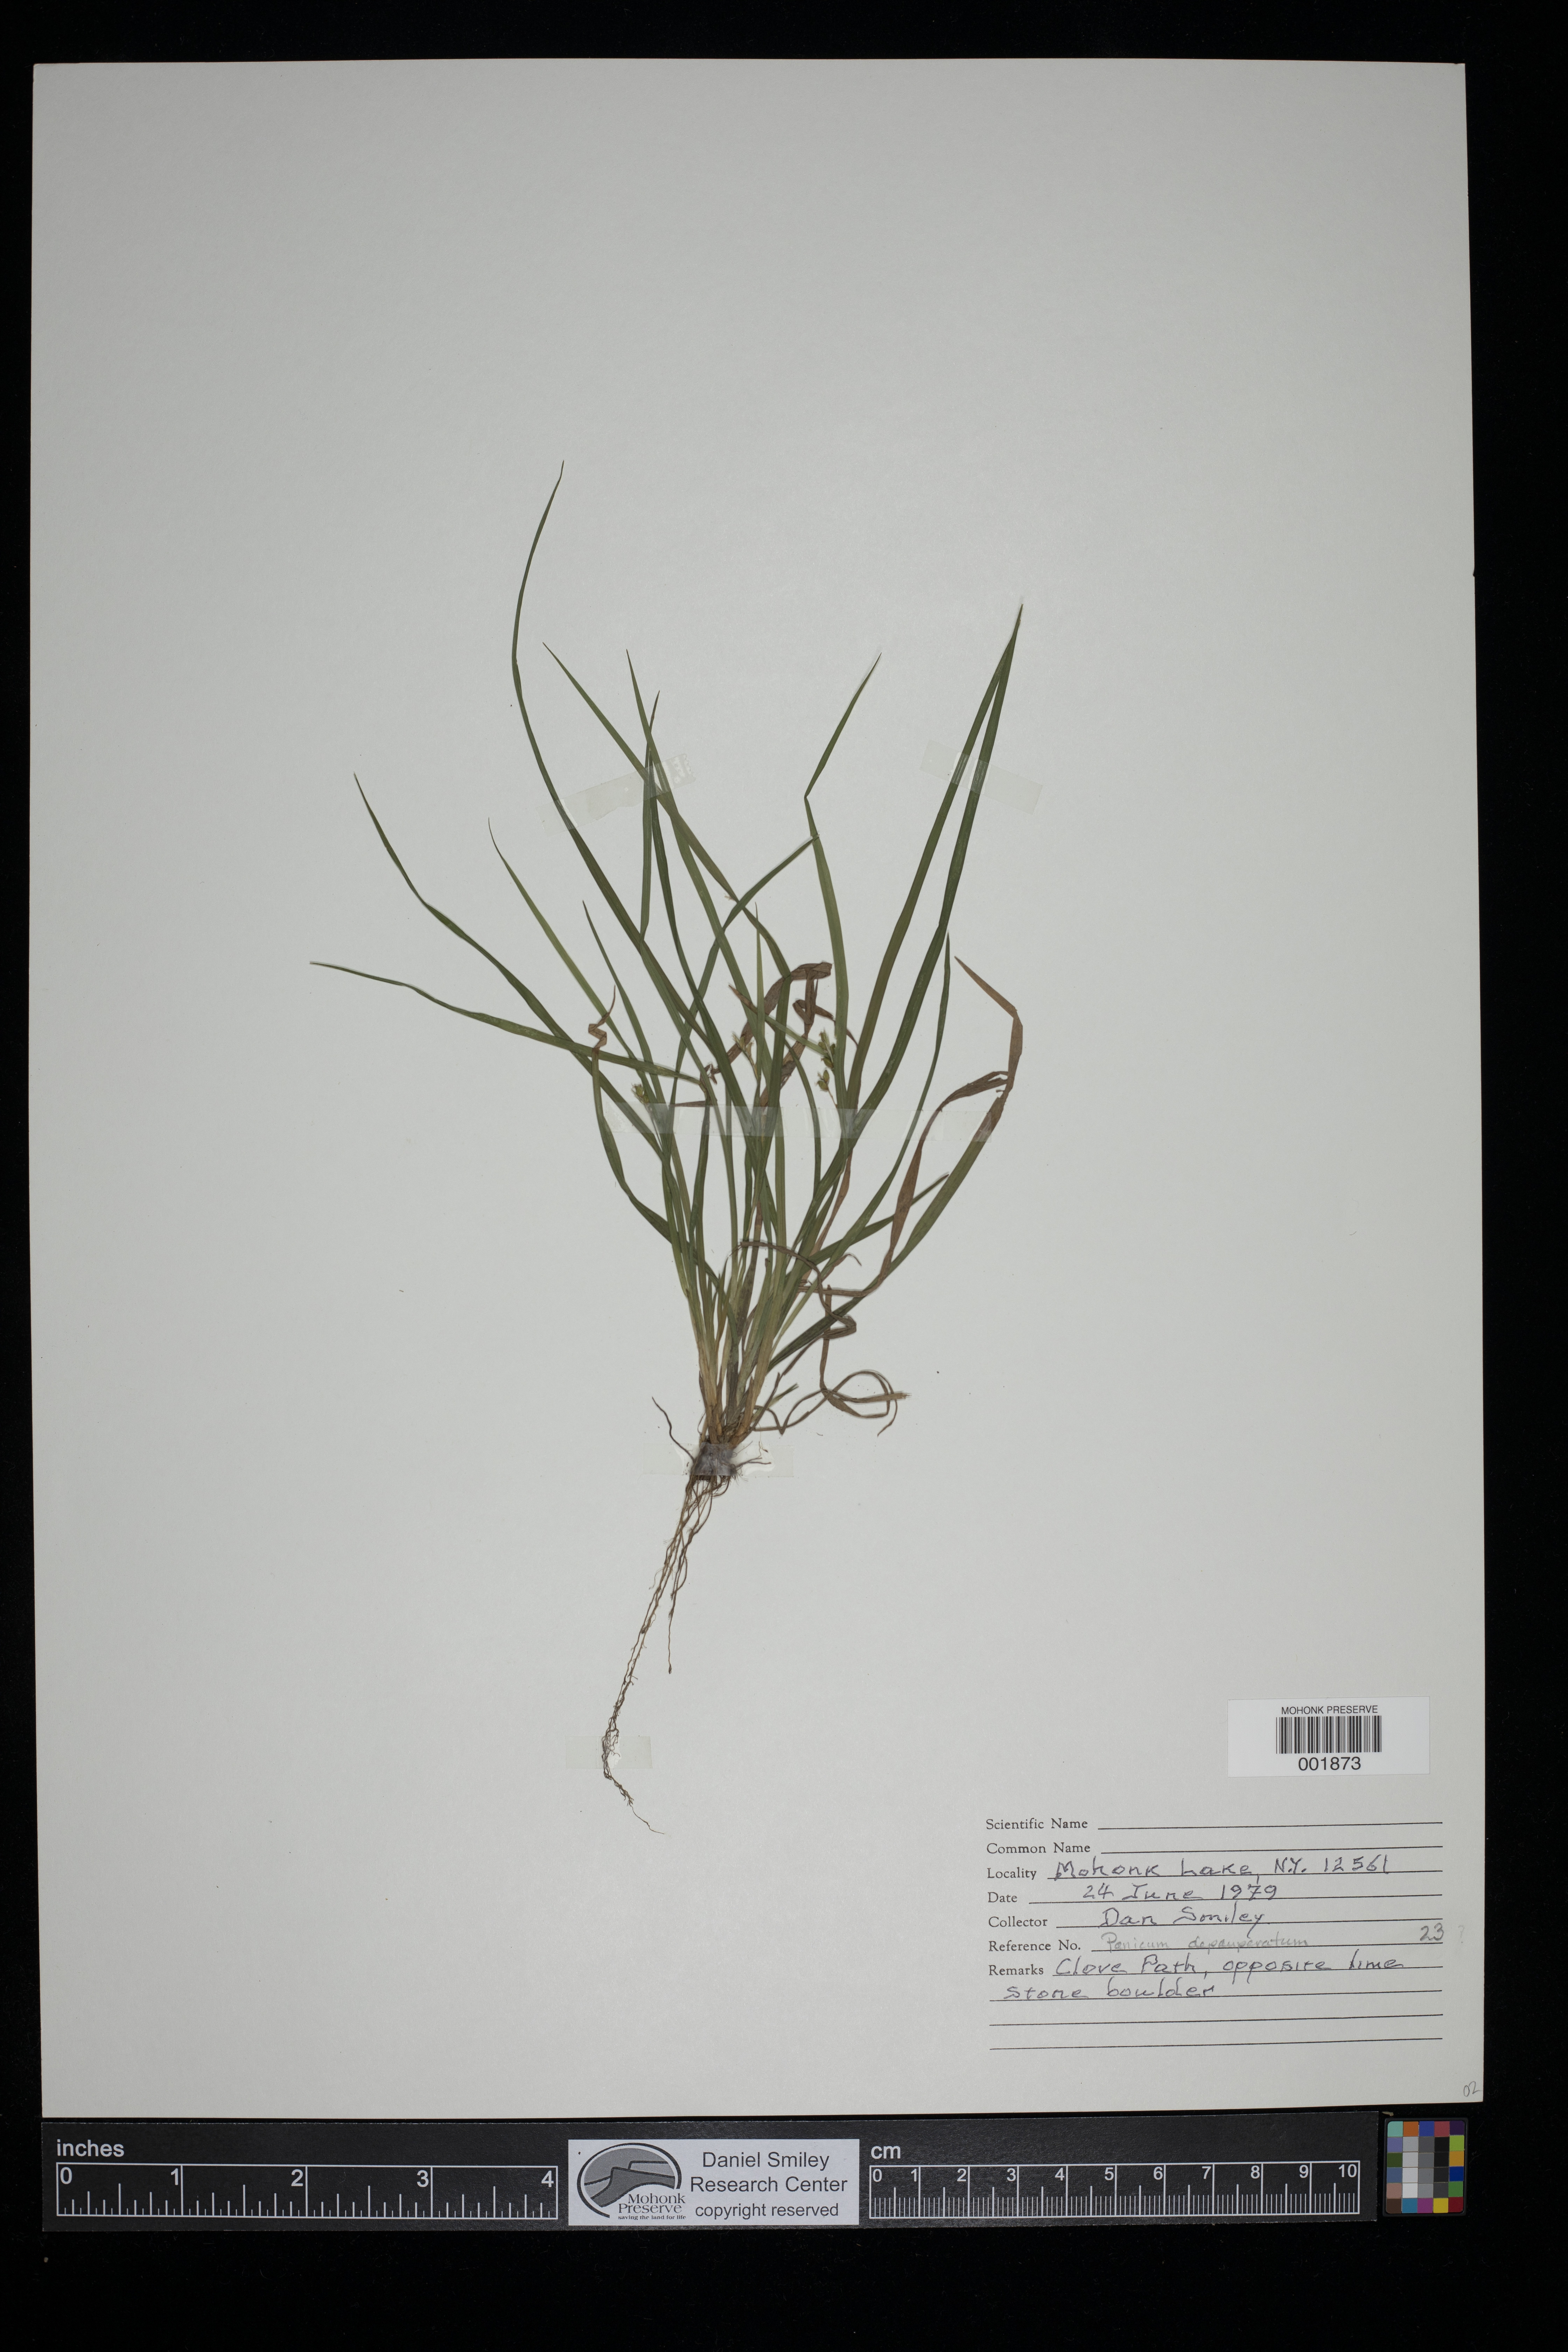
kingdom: Plantae
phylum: Tracheophyta
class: Liliopsida
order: Poales
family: Poaceae
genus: Dichanthelium
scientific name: Dichanthelium depauperatum
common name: Depauperate panicgrass
